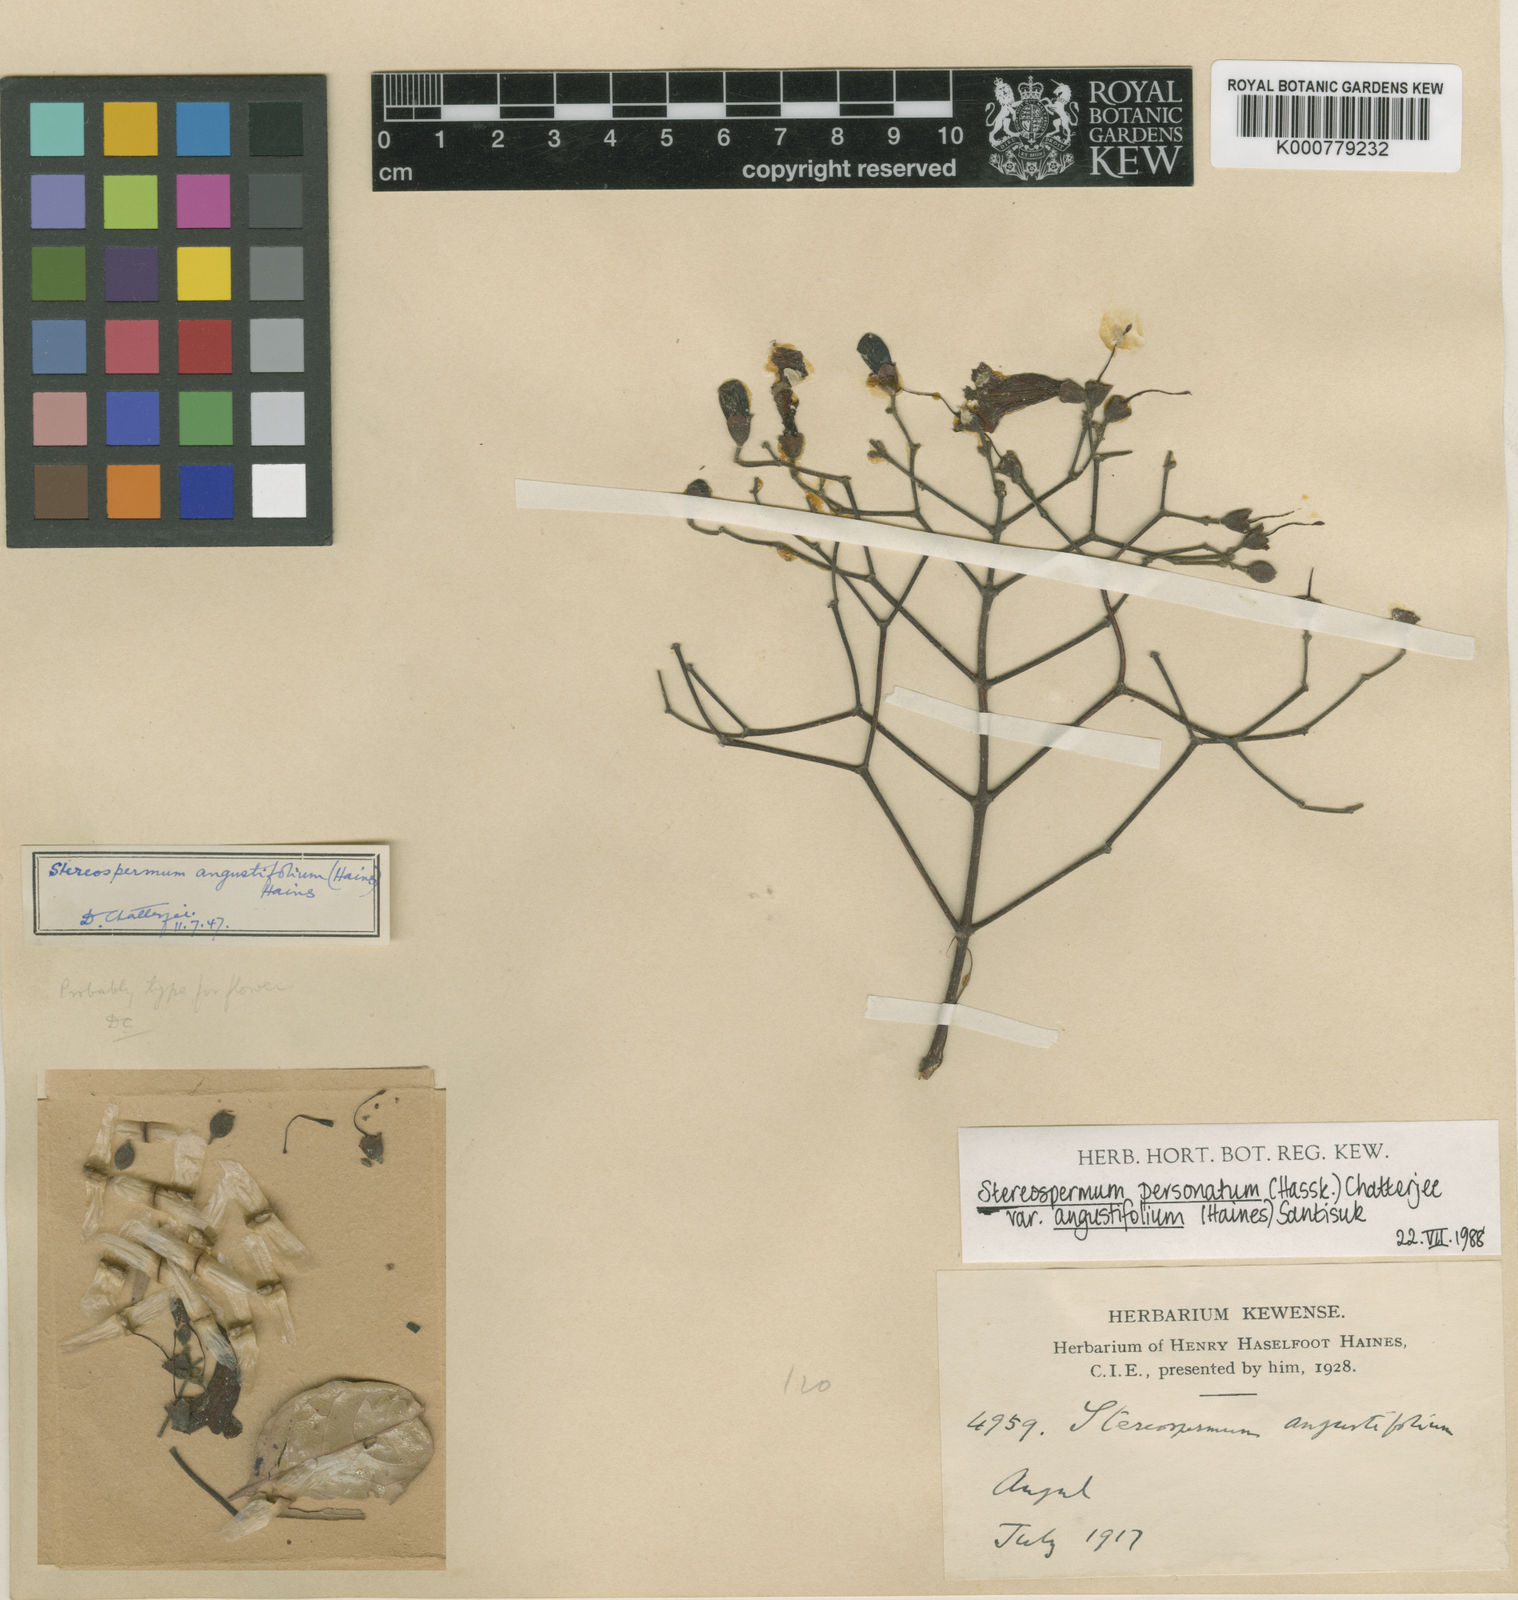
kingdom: Plantae
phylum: Tracheophyta
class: Magnoliopsida
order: Lamiales
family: Bignoniaceae
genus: Stereospermum
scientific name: Stereospermum angustifolium
